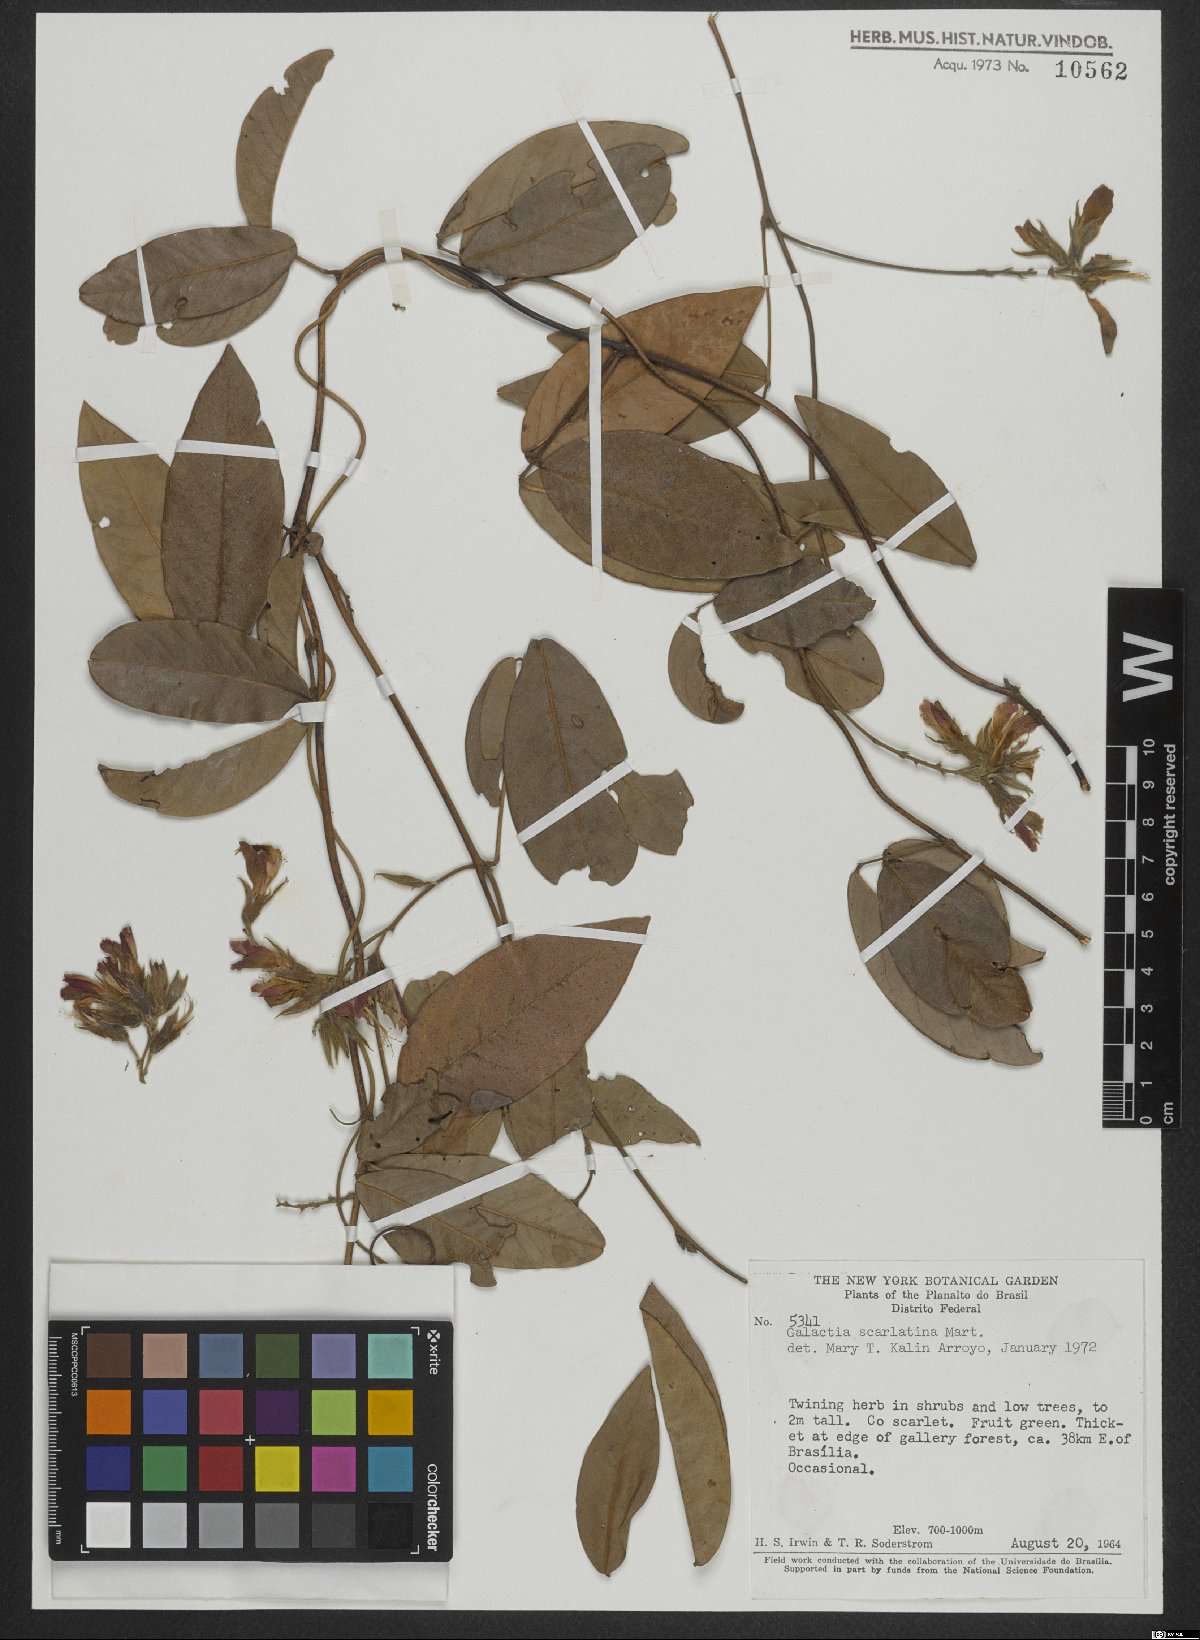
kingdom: Plantae
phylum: Tracheophyta
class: Magnoliopsida
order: Fabales
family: Fabaceae
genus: Betencourtia
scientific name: Betencourtia scarlatina
